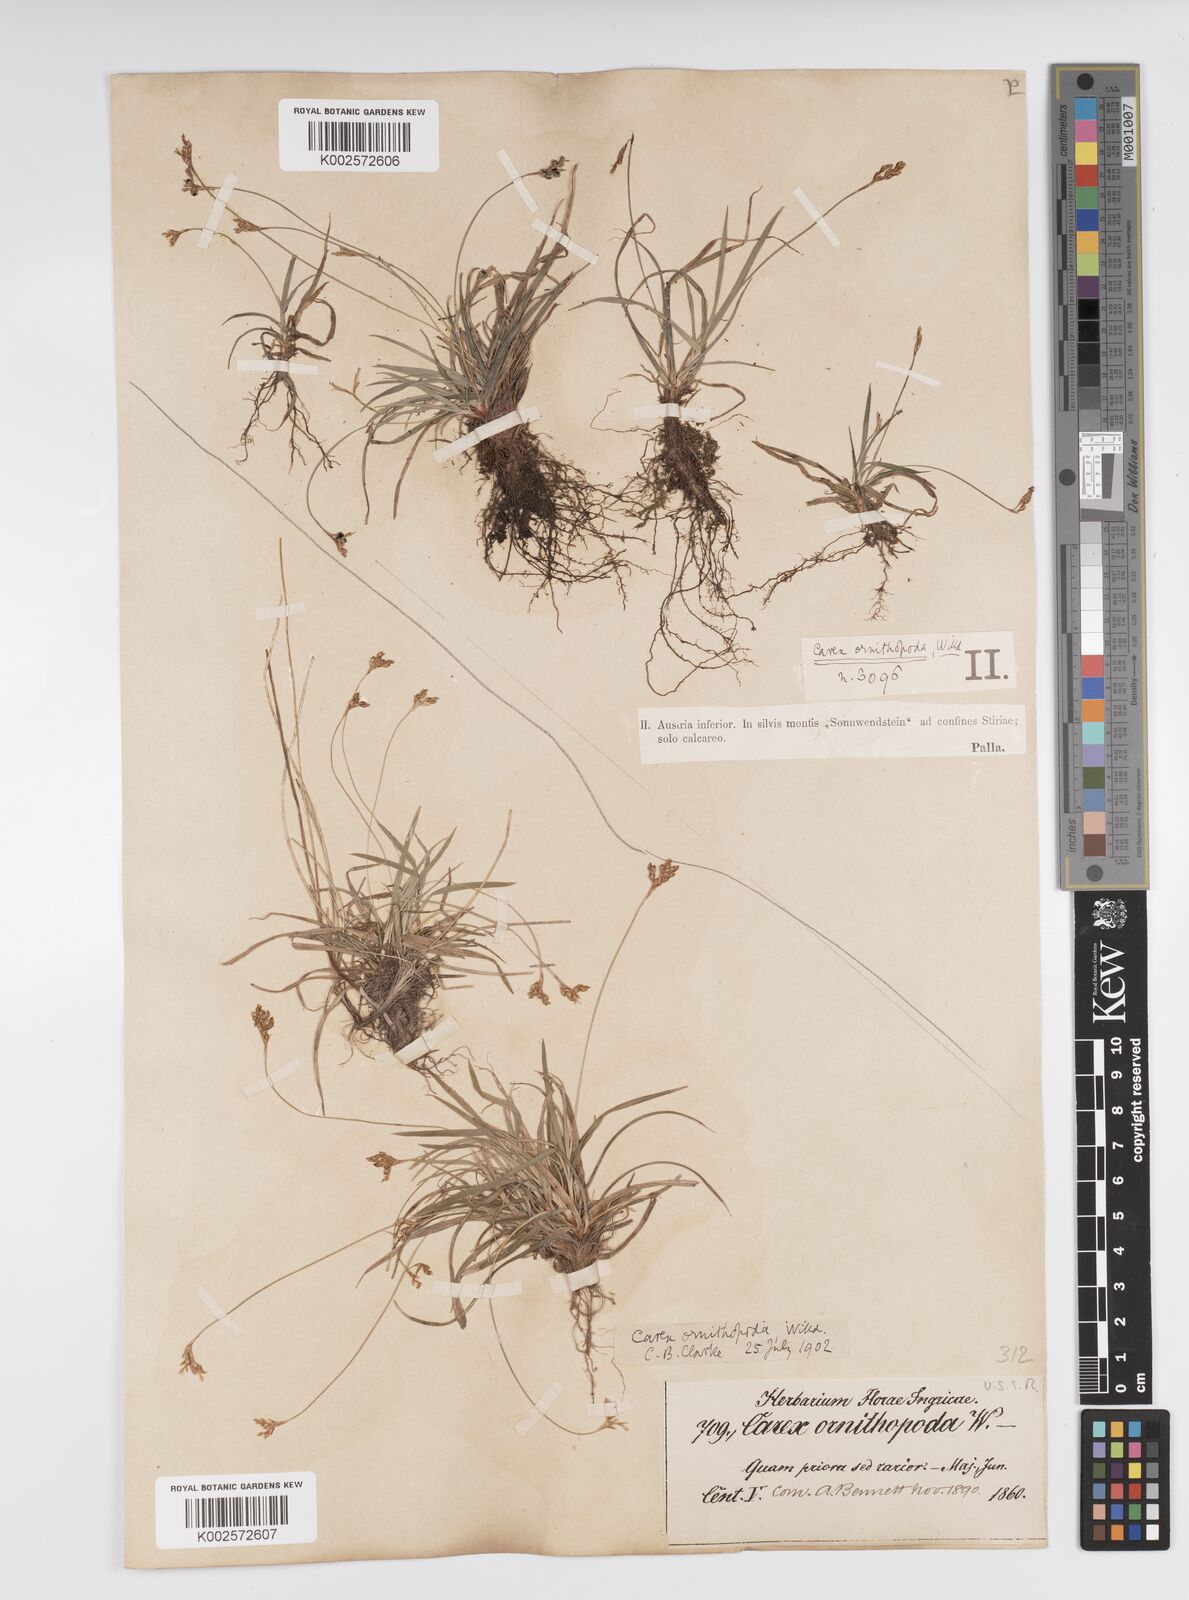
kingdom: Plantae
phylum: Tracheophyta
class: Liliopsida
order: Poales
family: Cyperaceae
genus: Carex
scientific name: Carex ornithopoda
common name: Bird's-foot sedge
